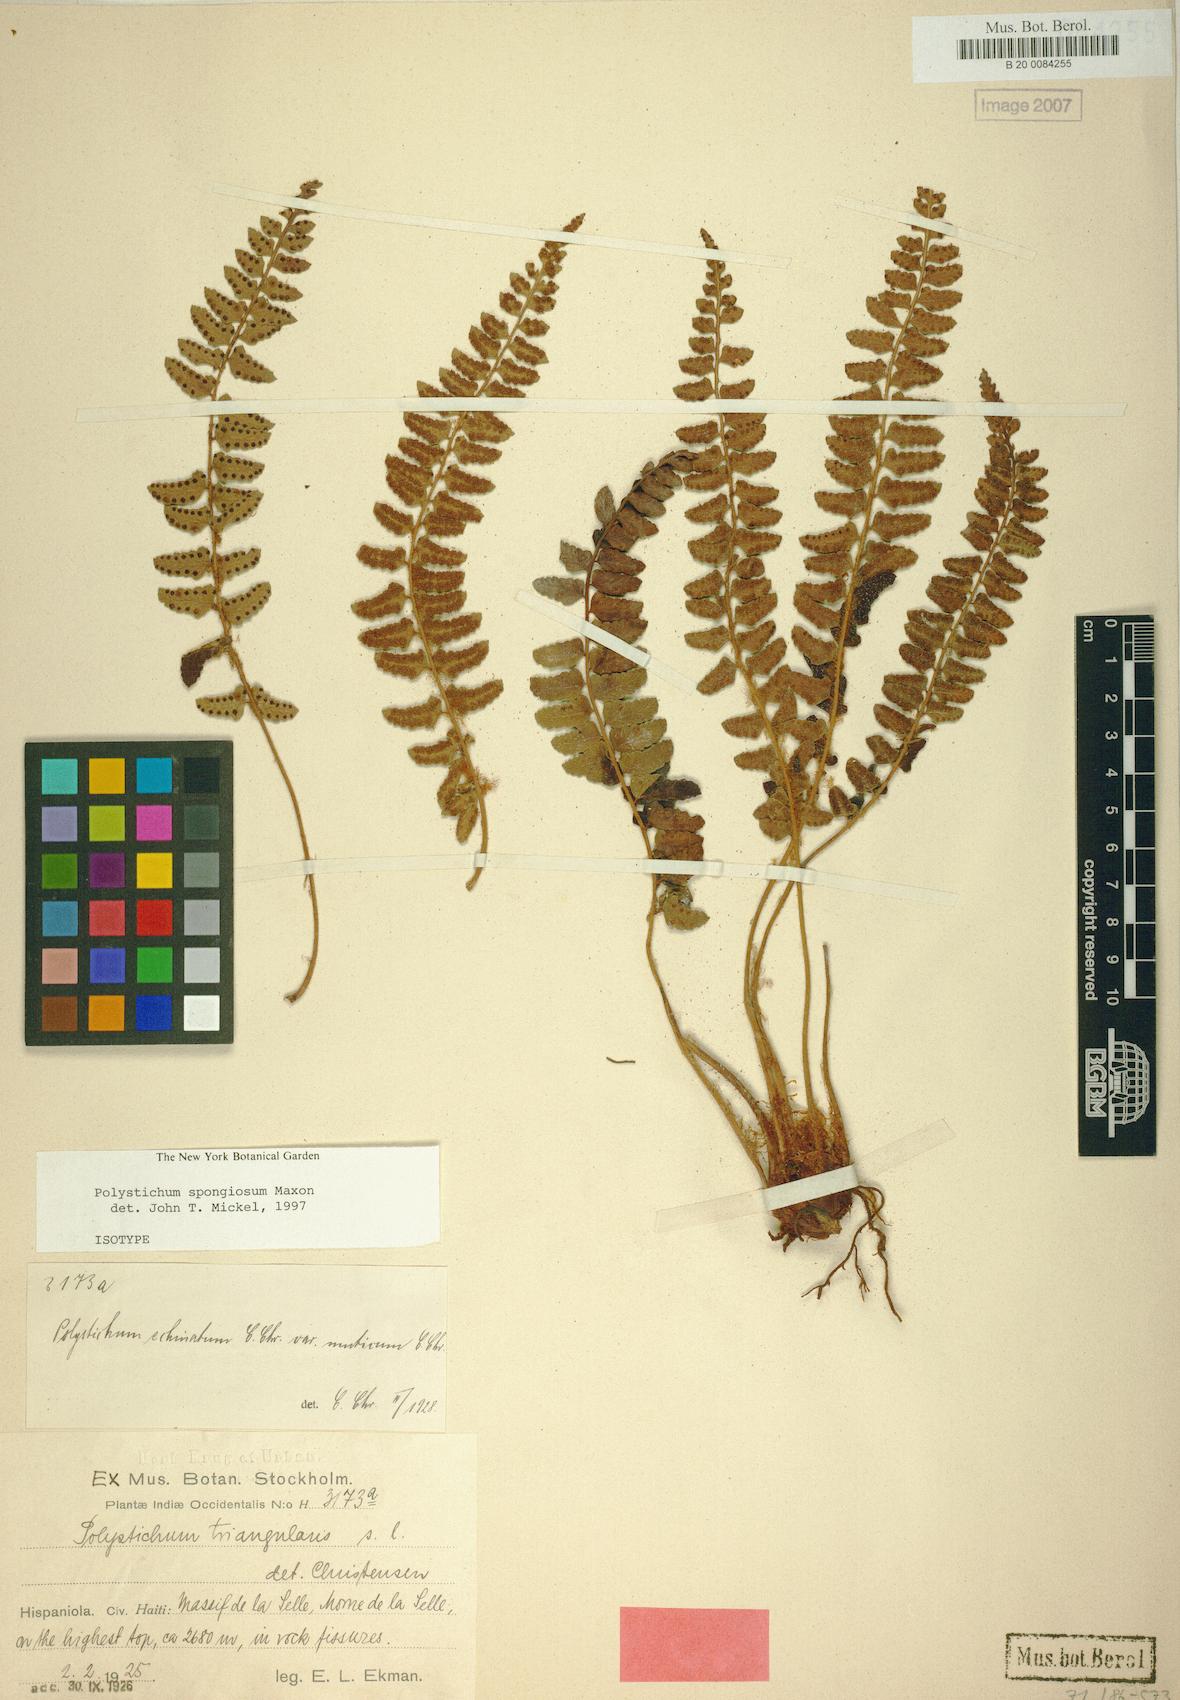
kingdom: Plantae
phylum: Tracheophyta
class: Polypodiopsida
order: Polypodiales
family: Dryopteridaceae
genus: Polystichum
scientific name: Polystichum spongiosum
